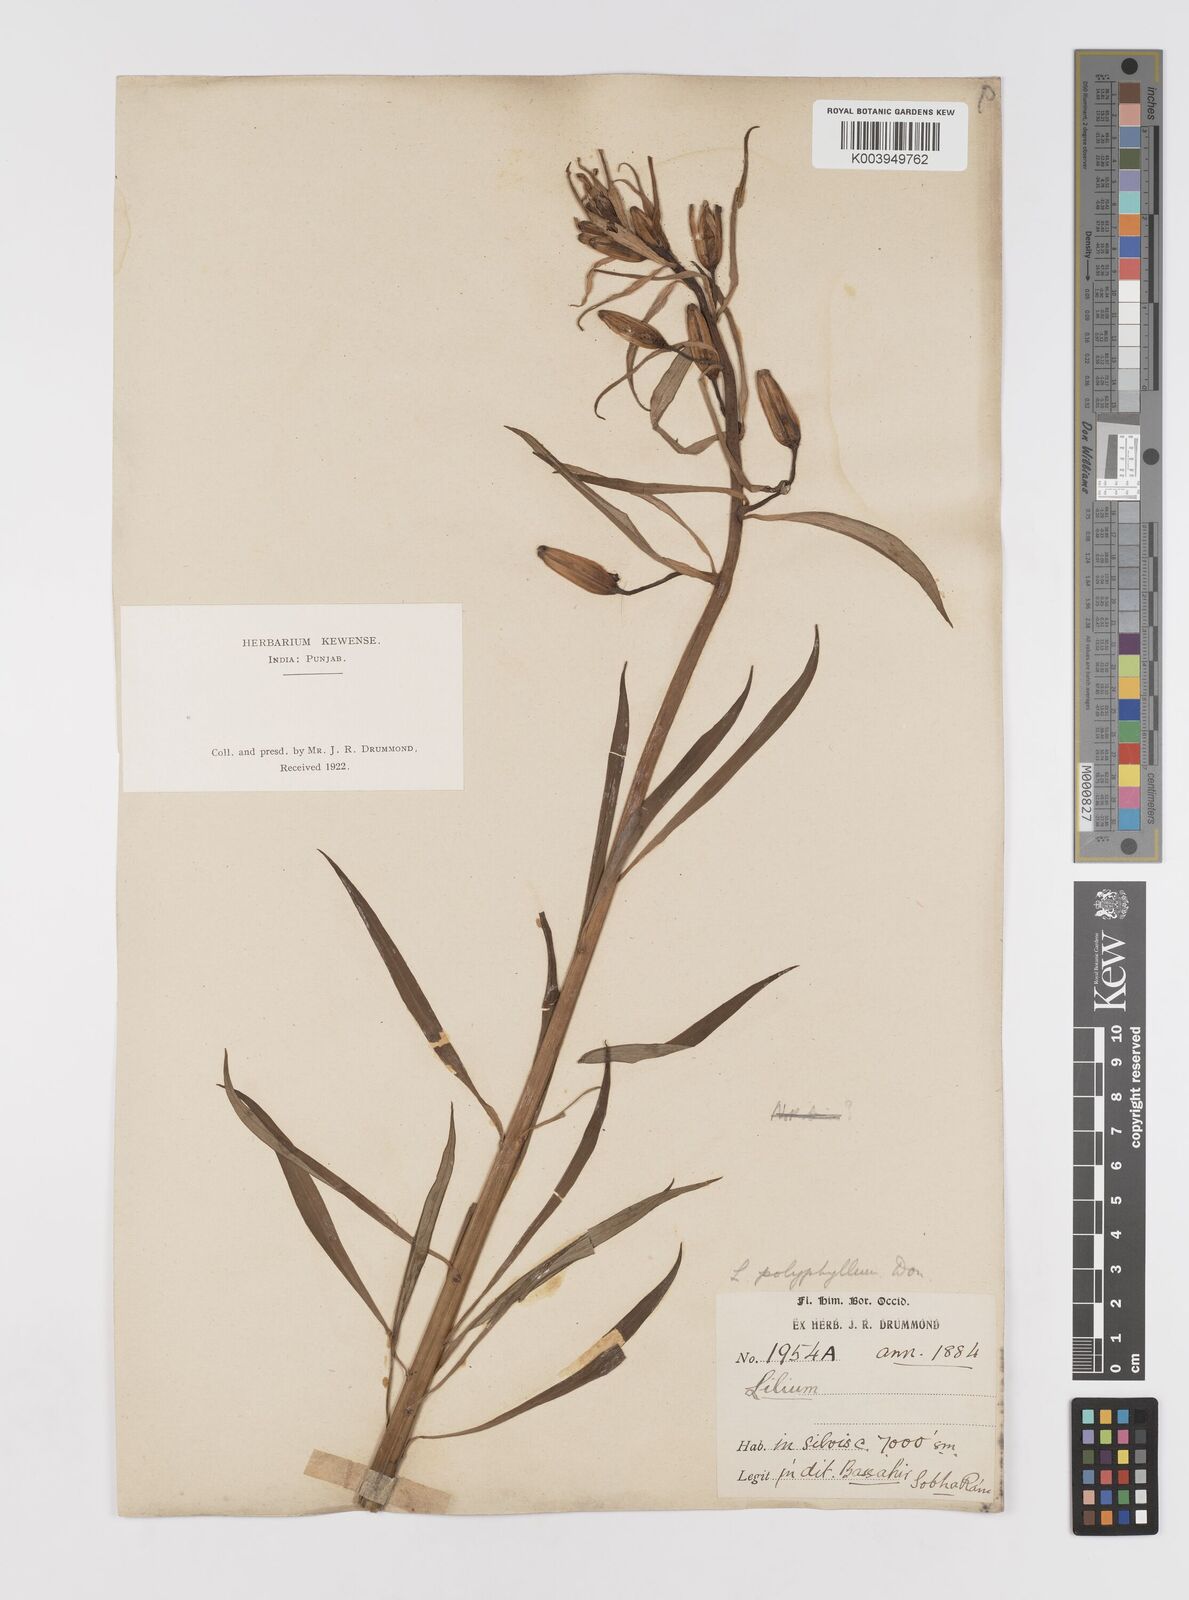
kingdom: Plantae
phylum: Tracheophyta
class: Liliopsida
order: Liliales
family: Liliaceae
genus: Lilium
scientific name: Lilium polyphyllum
